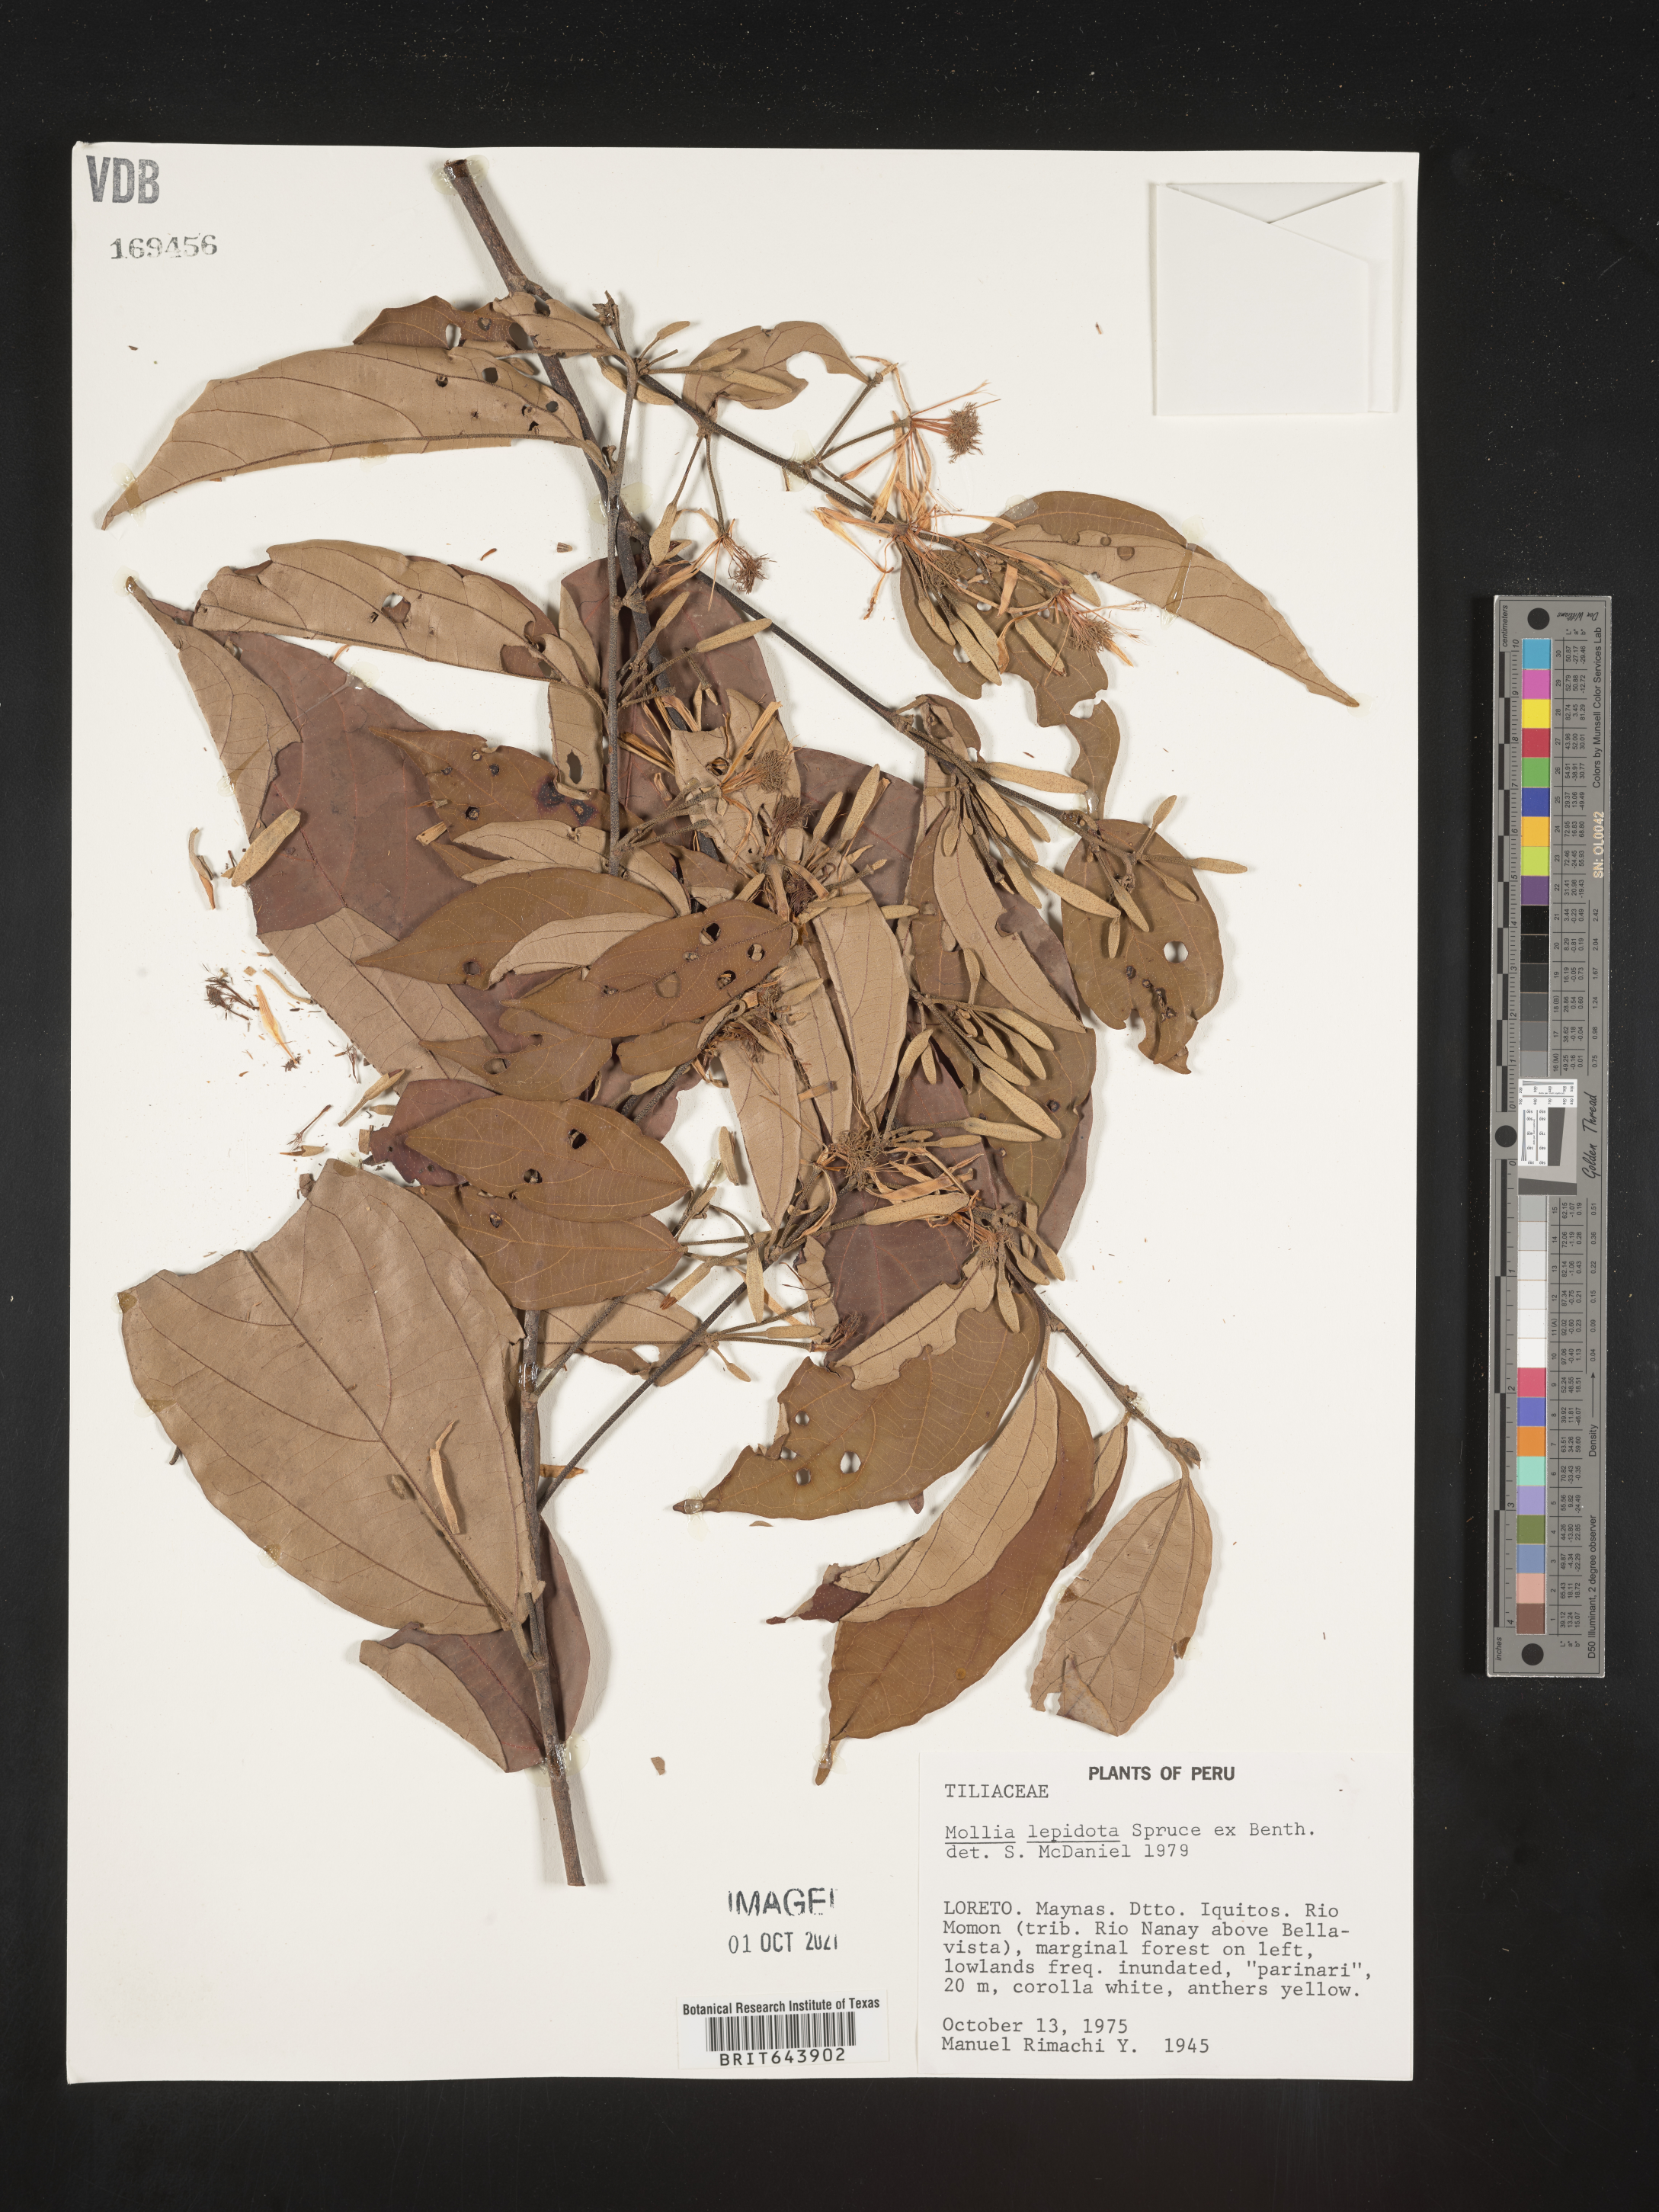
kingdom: Plantae
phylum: Tracheophyta
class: Magnoliopsida
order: Malvales
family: Malvaceae
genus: Mollia
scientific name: Mollia
